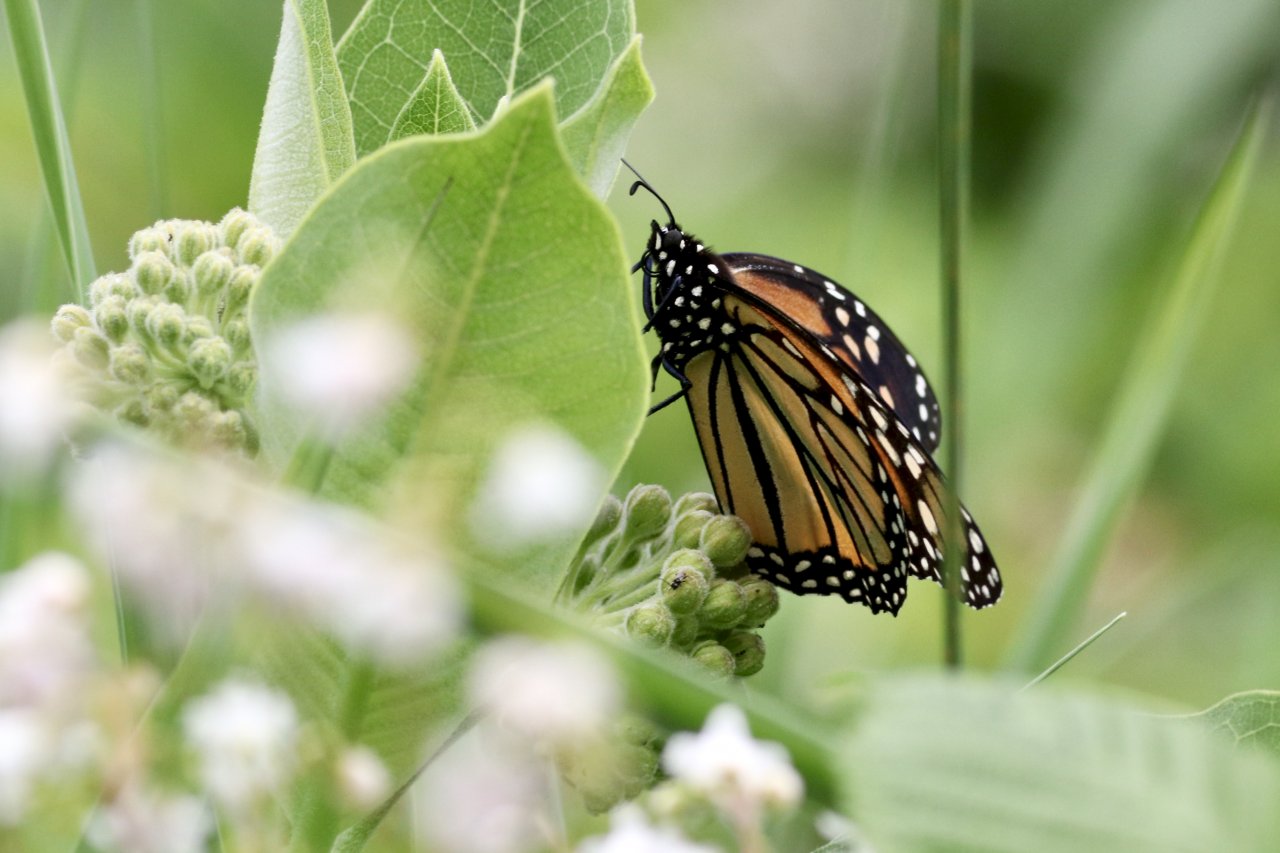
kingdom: Animalia
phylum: Arthropoda
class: Insecta
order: Lepidoptera
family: Nymphalidae
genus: Danaus
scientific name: Danaus plexippus
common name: Monarch
